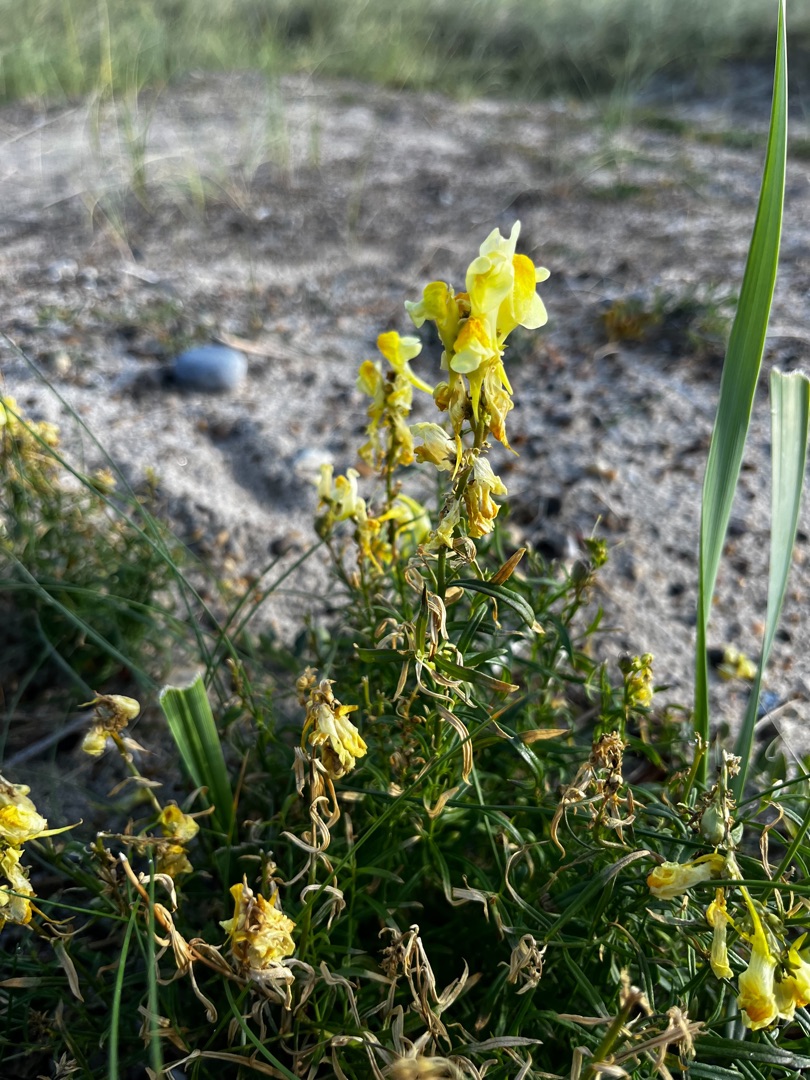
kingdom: Plantae
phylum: Tracheophyta
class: Magnoliopsida
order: Lamiales
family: Plantaginaceae
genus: Linaria
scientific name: Linaria vulgaris
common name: Almindelig torskemund
